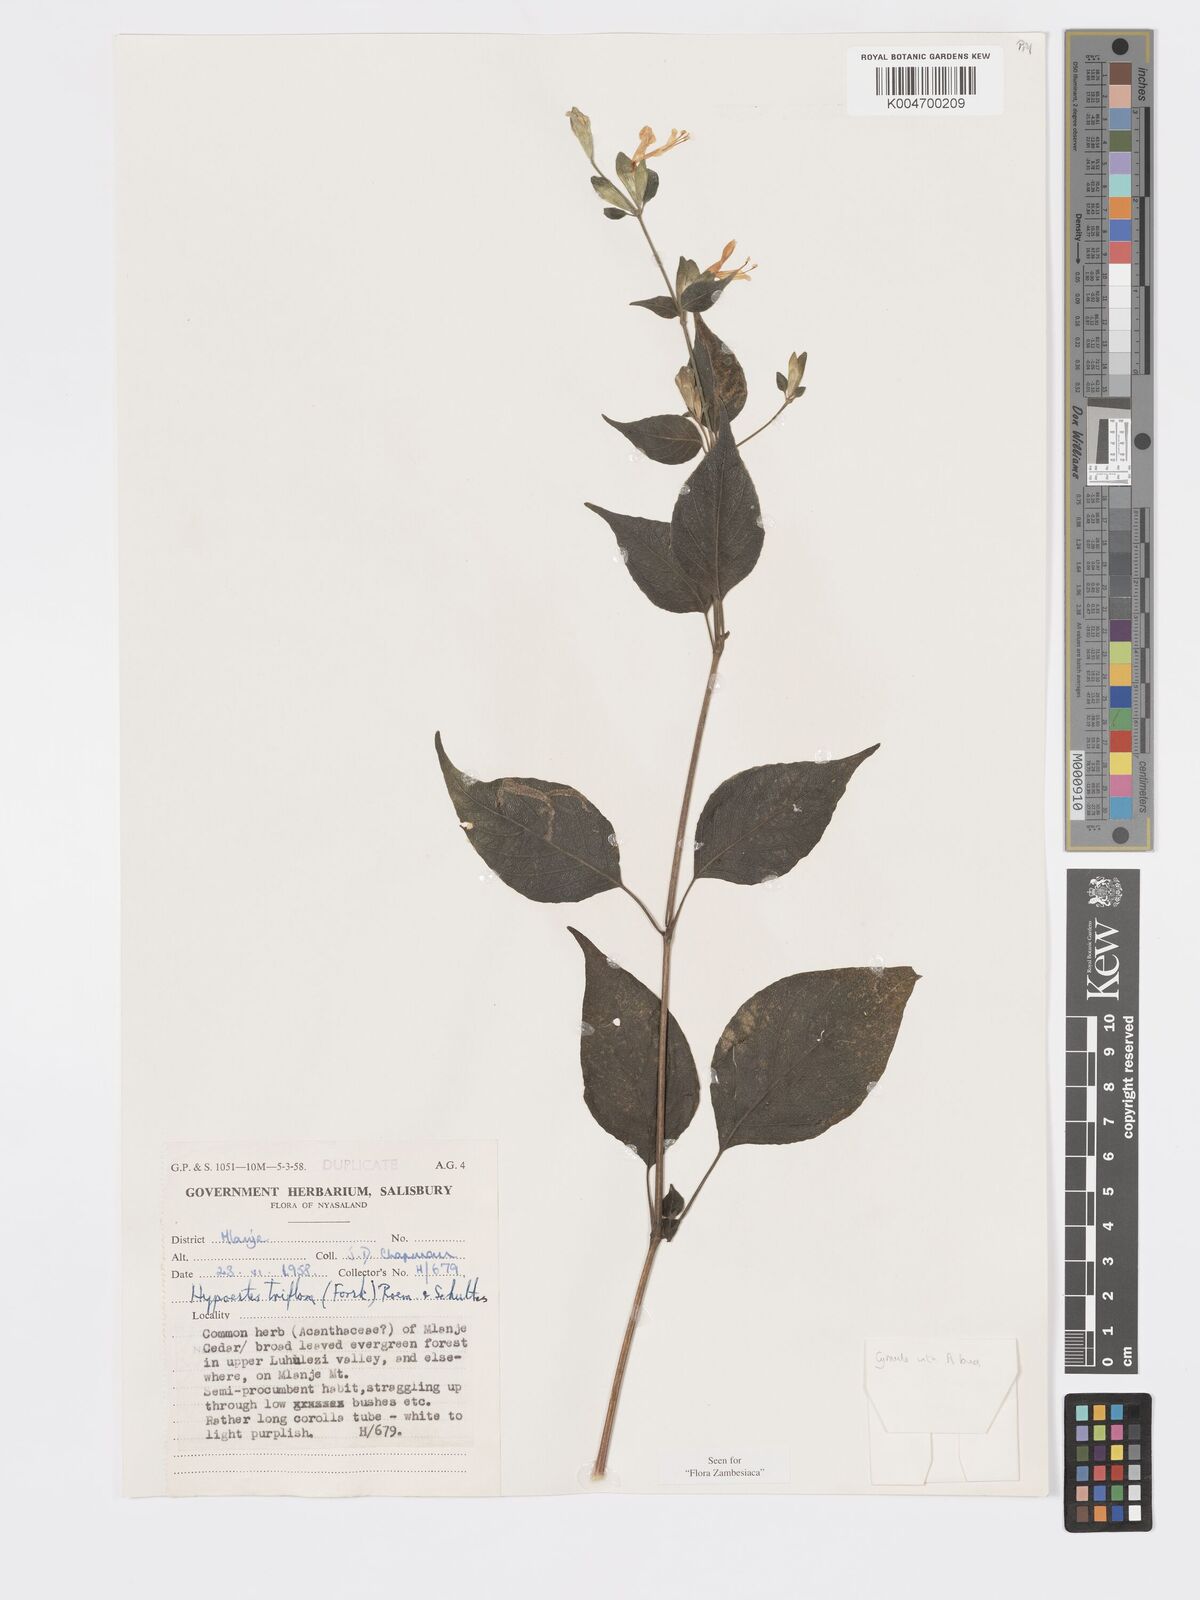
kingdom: Plantae
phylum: Tracheophyta
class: Magnoliopsida
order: Lamiales
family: Acanthaceae
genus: Hypoestes
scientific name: Hypoestes triflora
